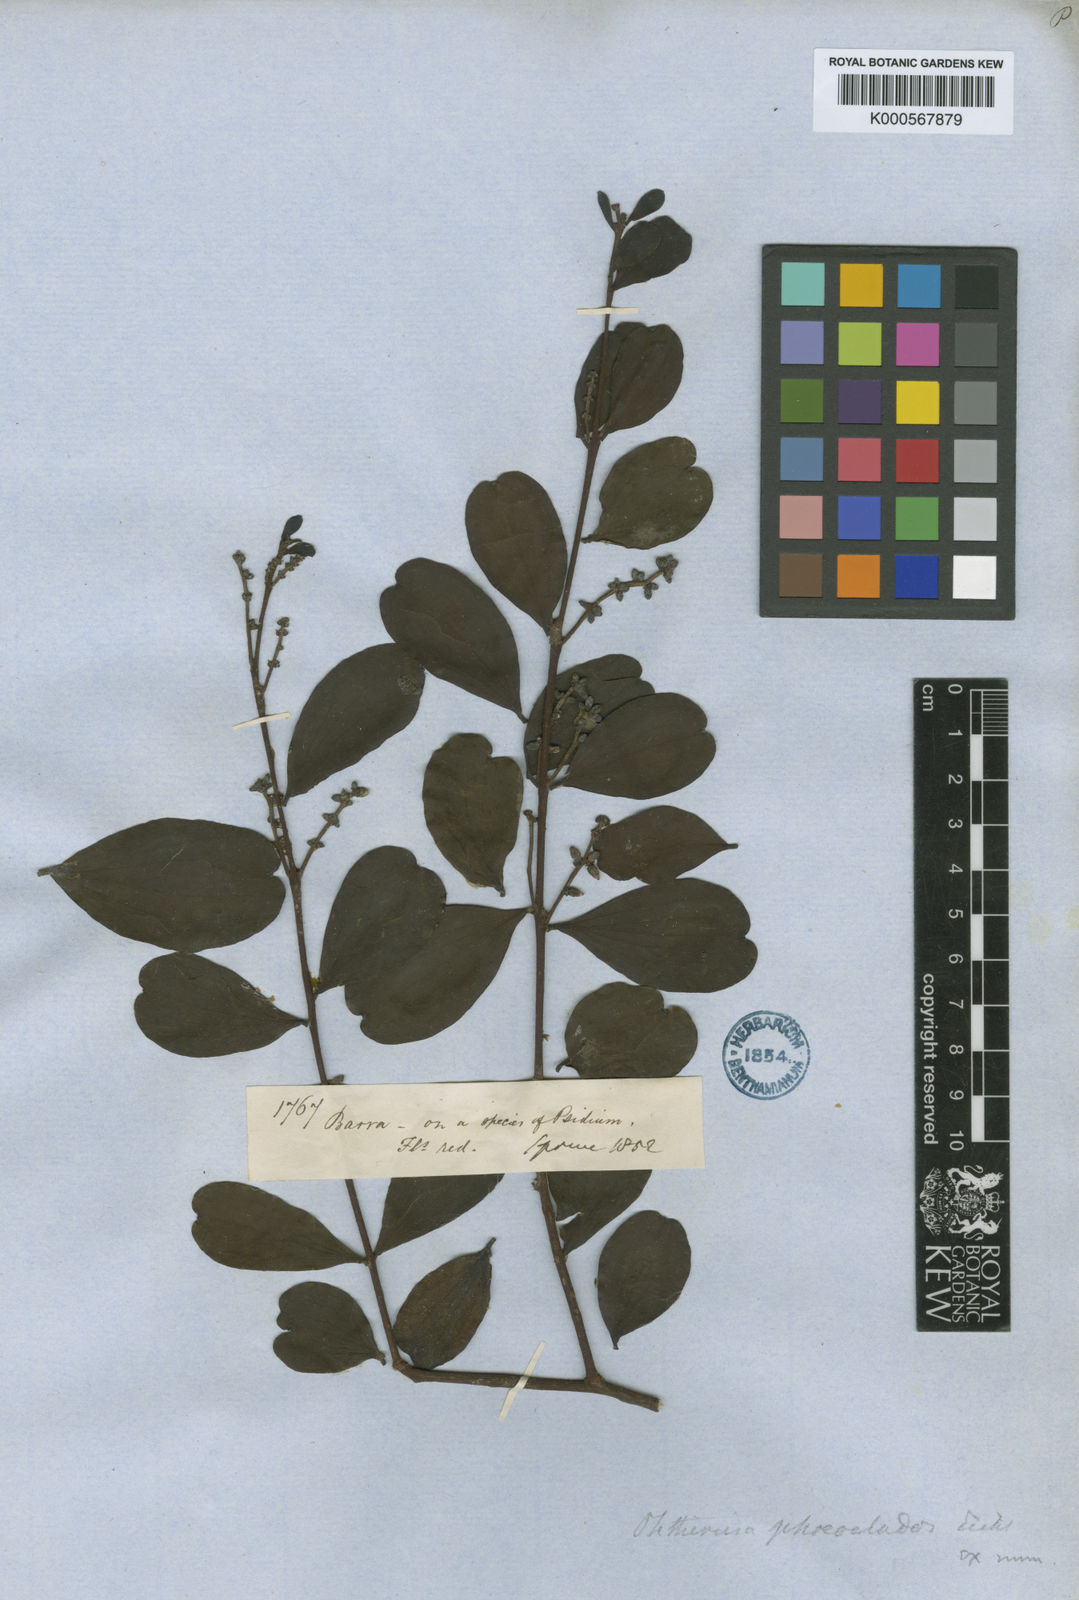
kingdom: Plantae
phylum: Tracheophyta
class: Magnoliopsida
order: Santalales
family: Loranthaceae
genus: Phthirusa
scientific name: Phthirusa guyanensis
